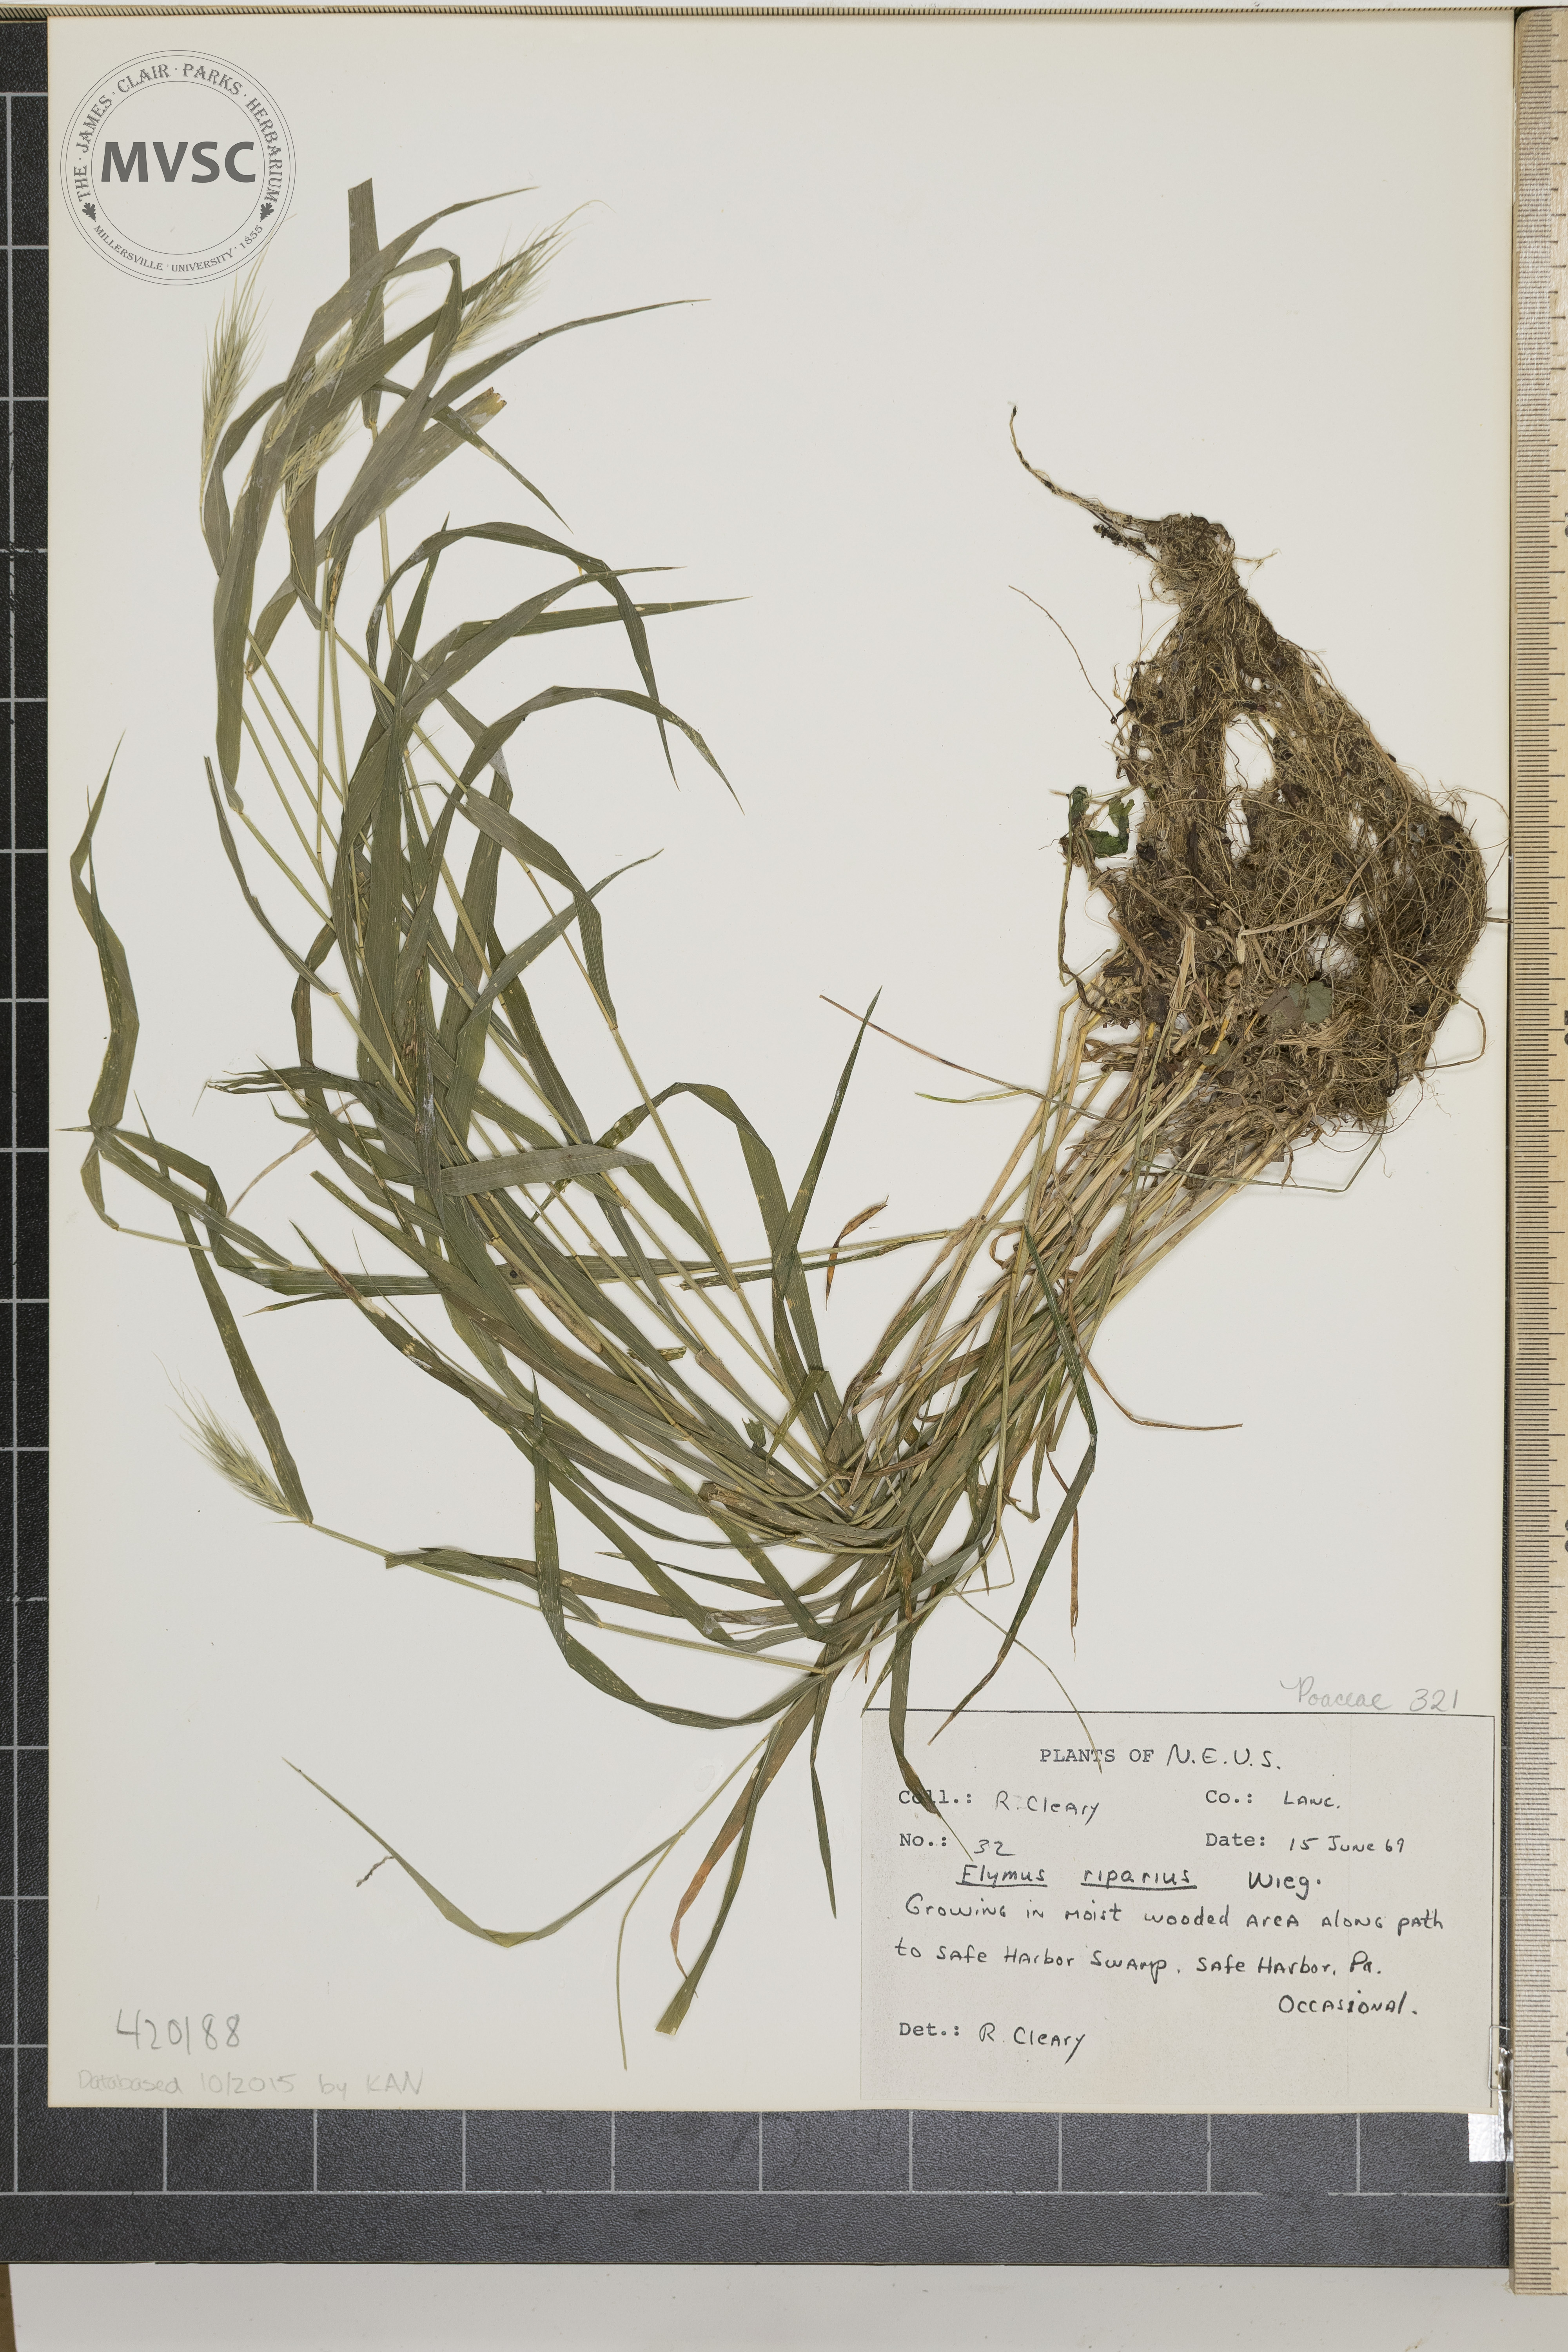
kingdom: Plantae
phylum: Tracheophyta
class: Liliopsida
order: Poales
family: Poaceae
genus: Elymus
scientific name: Elymus riparius
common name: Eastern riverbank wild rye
